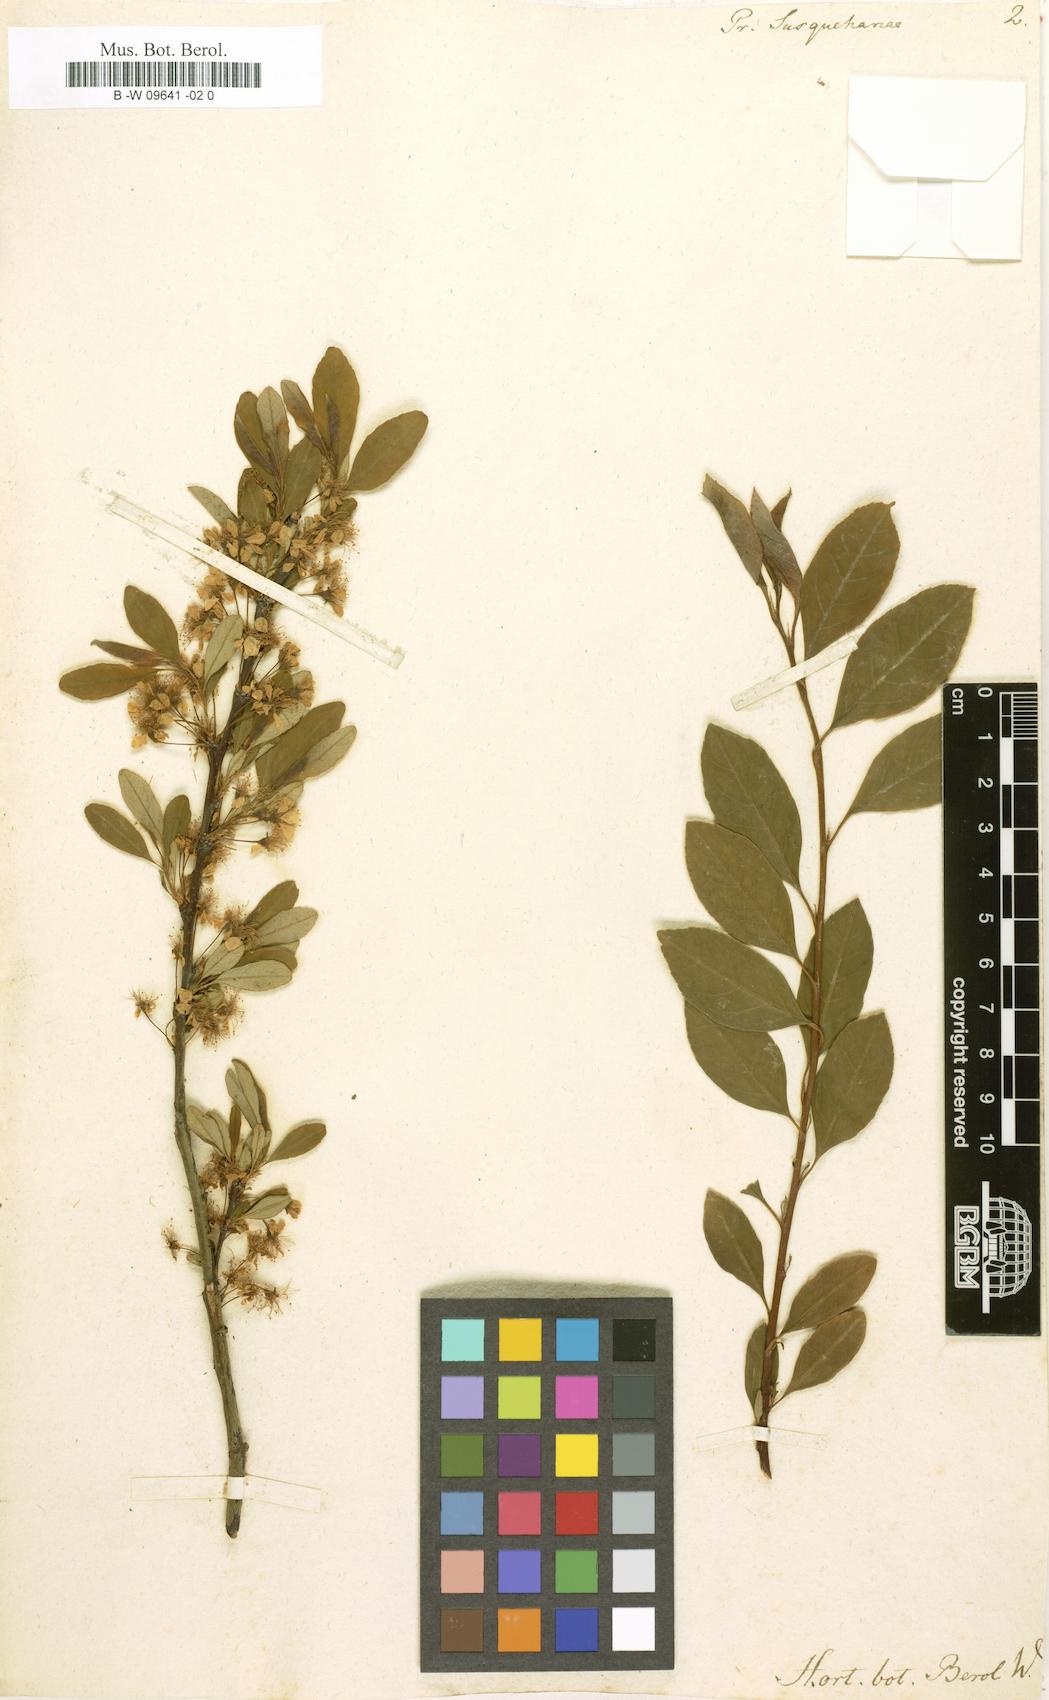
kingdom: Plantae
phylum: Tracheophyta
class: Magnoliopsida
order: Rosales
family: Rosaceae
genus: Prunus
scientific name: Prunus susquehanae
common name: Sesquehana sandcherry
